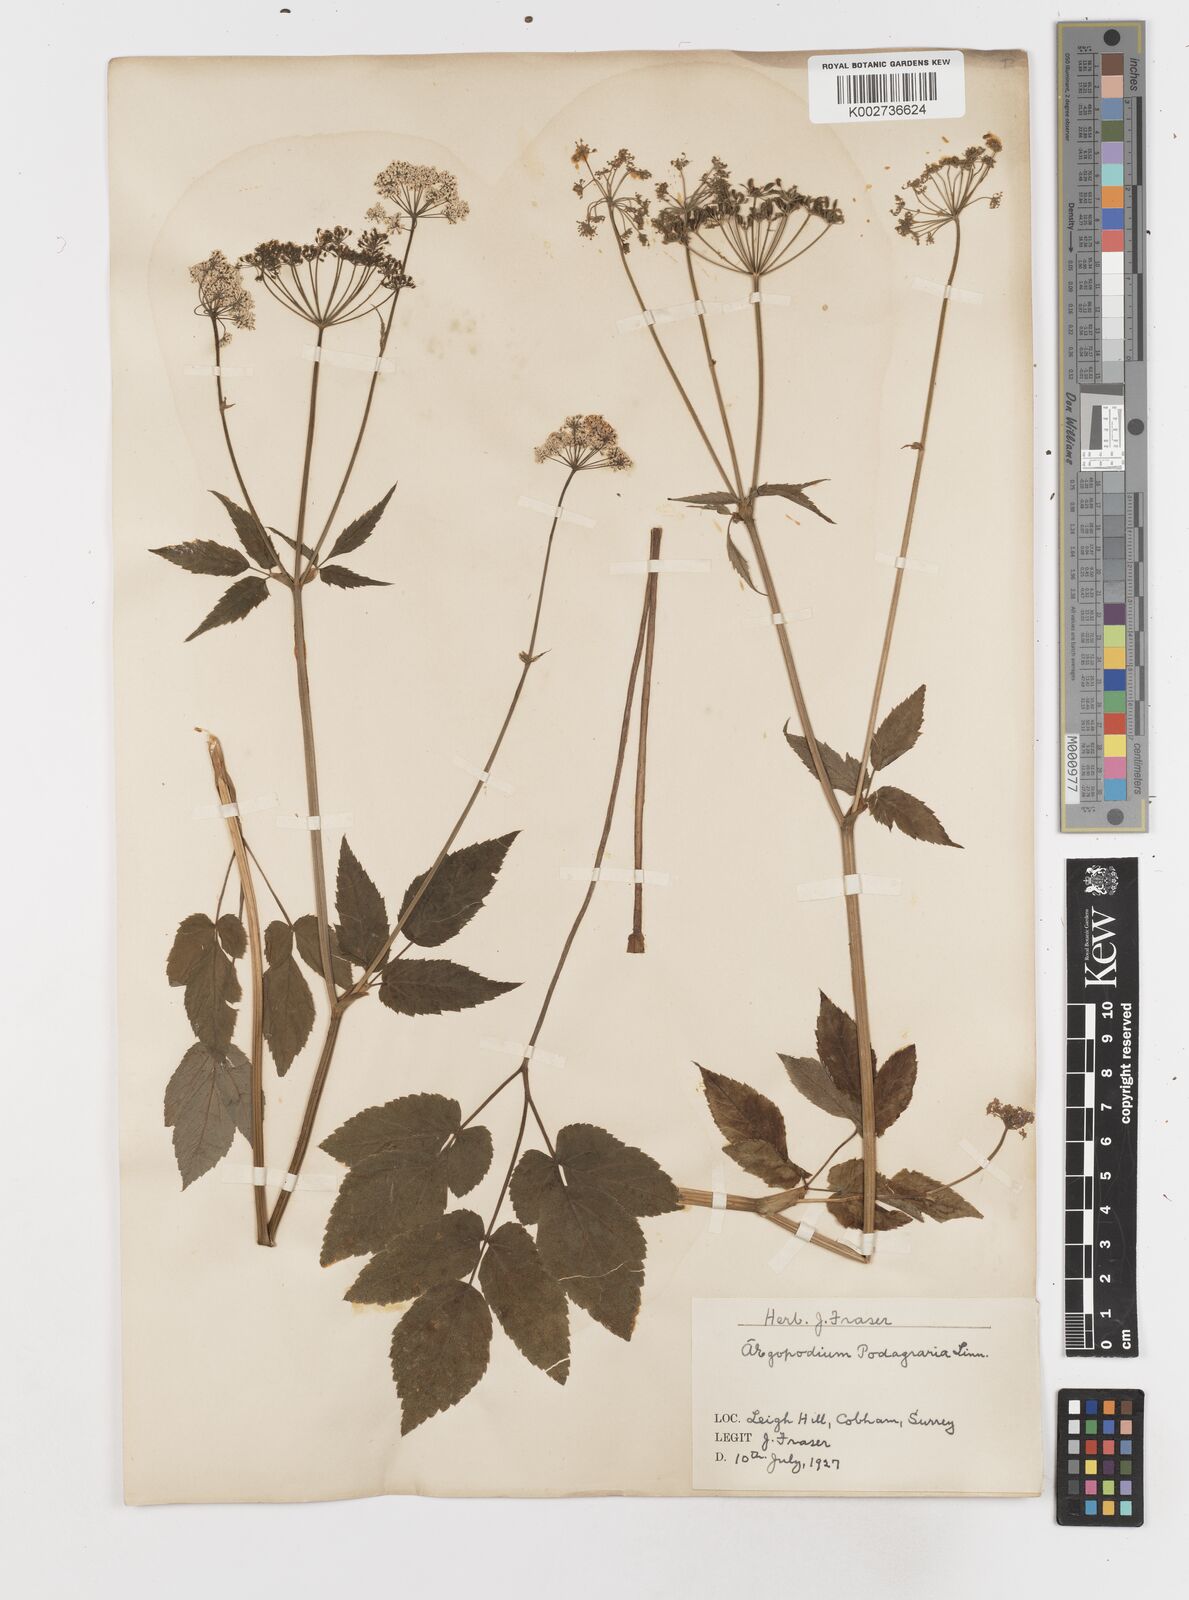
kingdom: Plantae
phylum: Tracheophyta
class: Magnoliopsida
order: Apiales
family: Apiaceae
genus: Aegopodium
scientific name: Aegopodium podagraria
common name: Ground-elder
